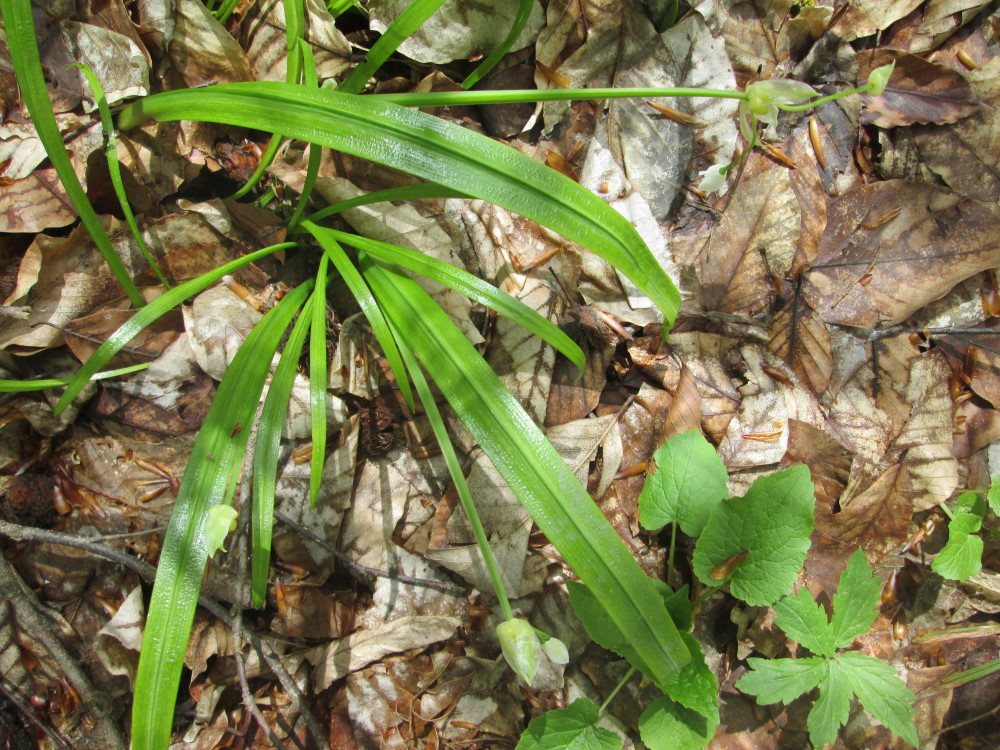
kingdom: Plantae
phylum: Tracheophyta
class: Liliopsida
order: Asparagales
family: Amaryllidaceae
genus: Allium
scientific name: Allium paradoxum
